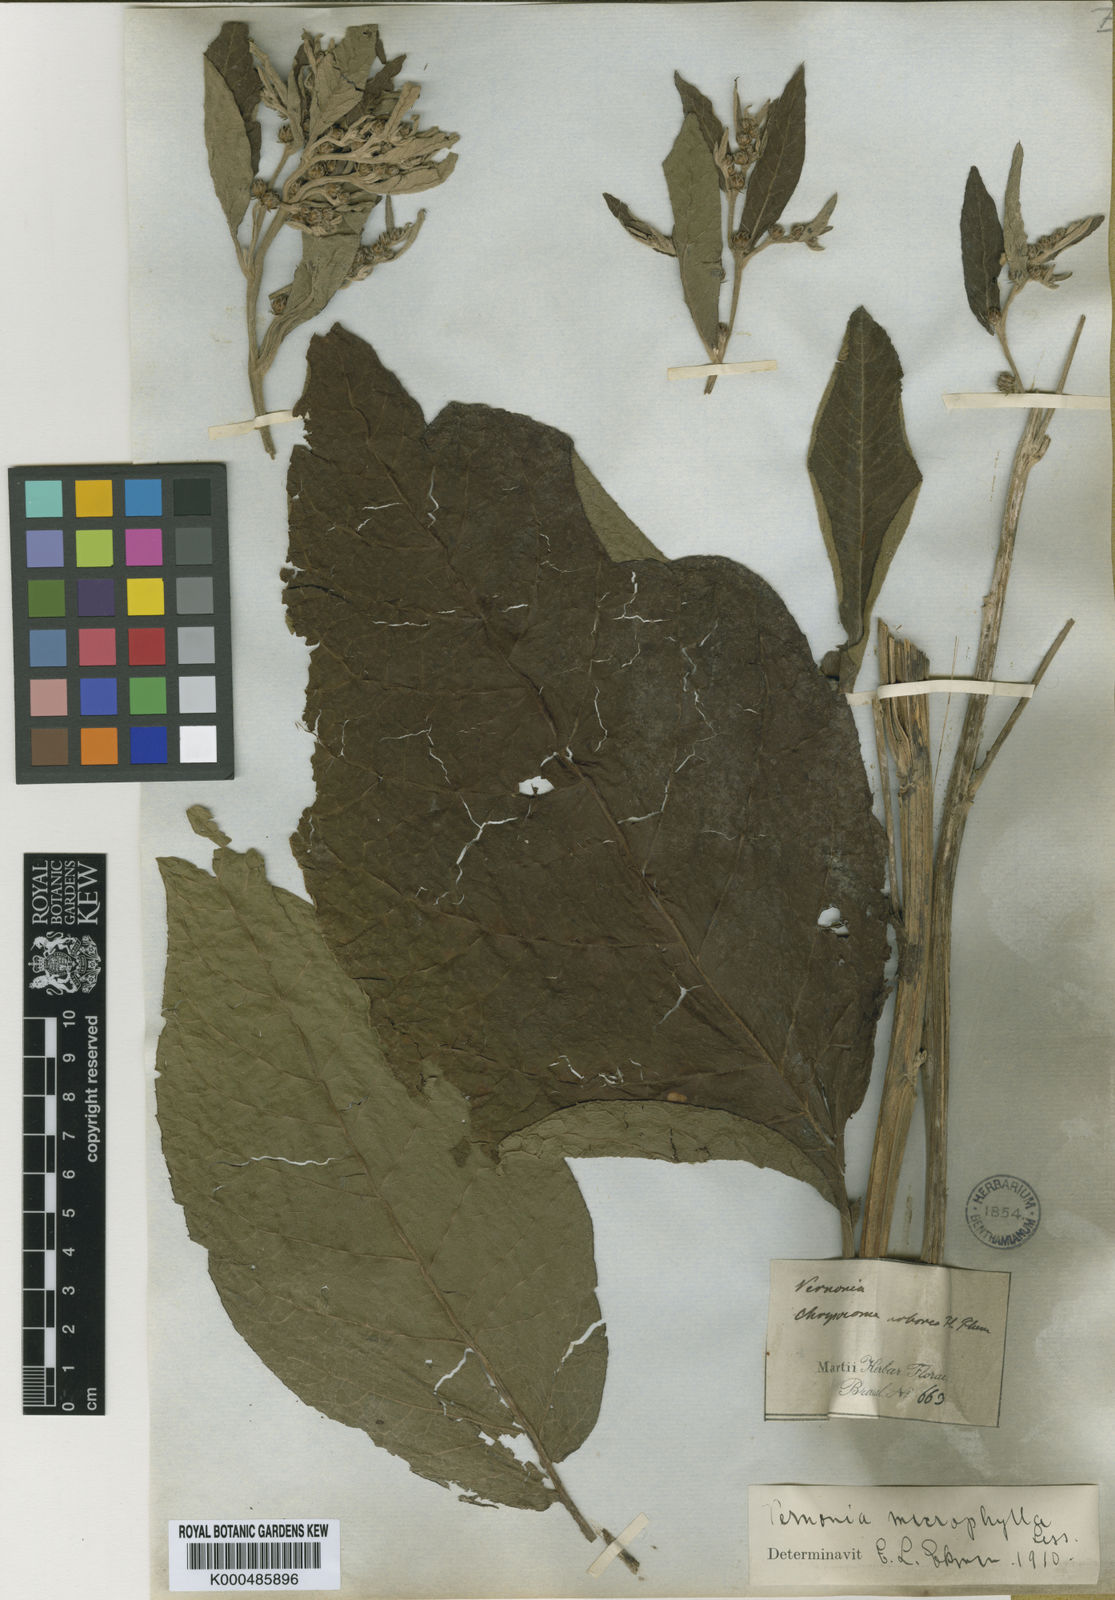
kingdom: Plantae
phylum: Tracheophyta
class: Magnoliopsida
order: Asterales
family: Asteraceae
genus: Lessingianthus
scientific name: Lessingianthus macrophyllus
